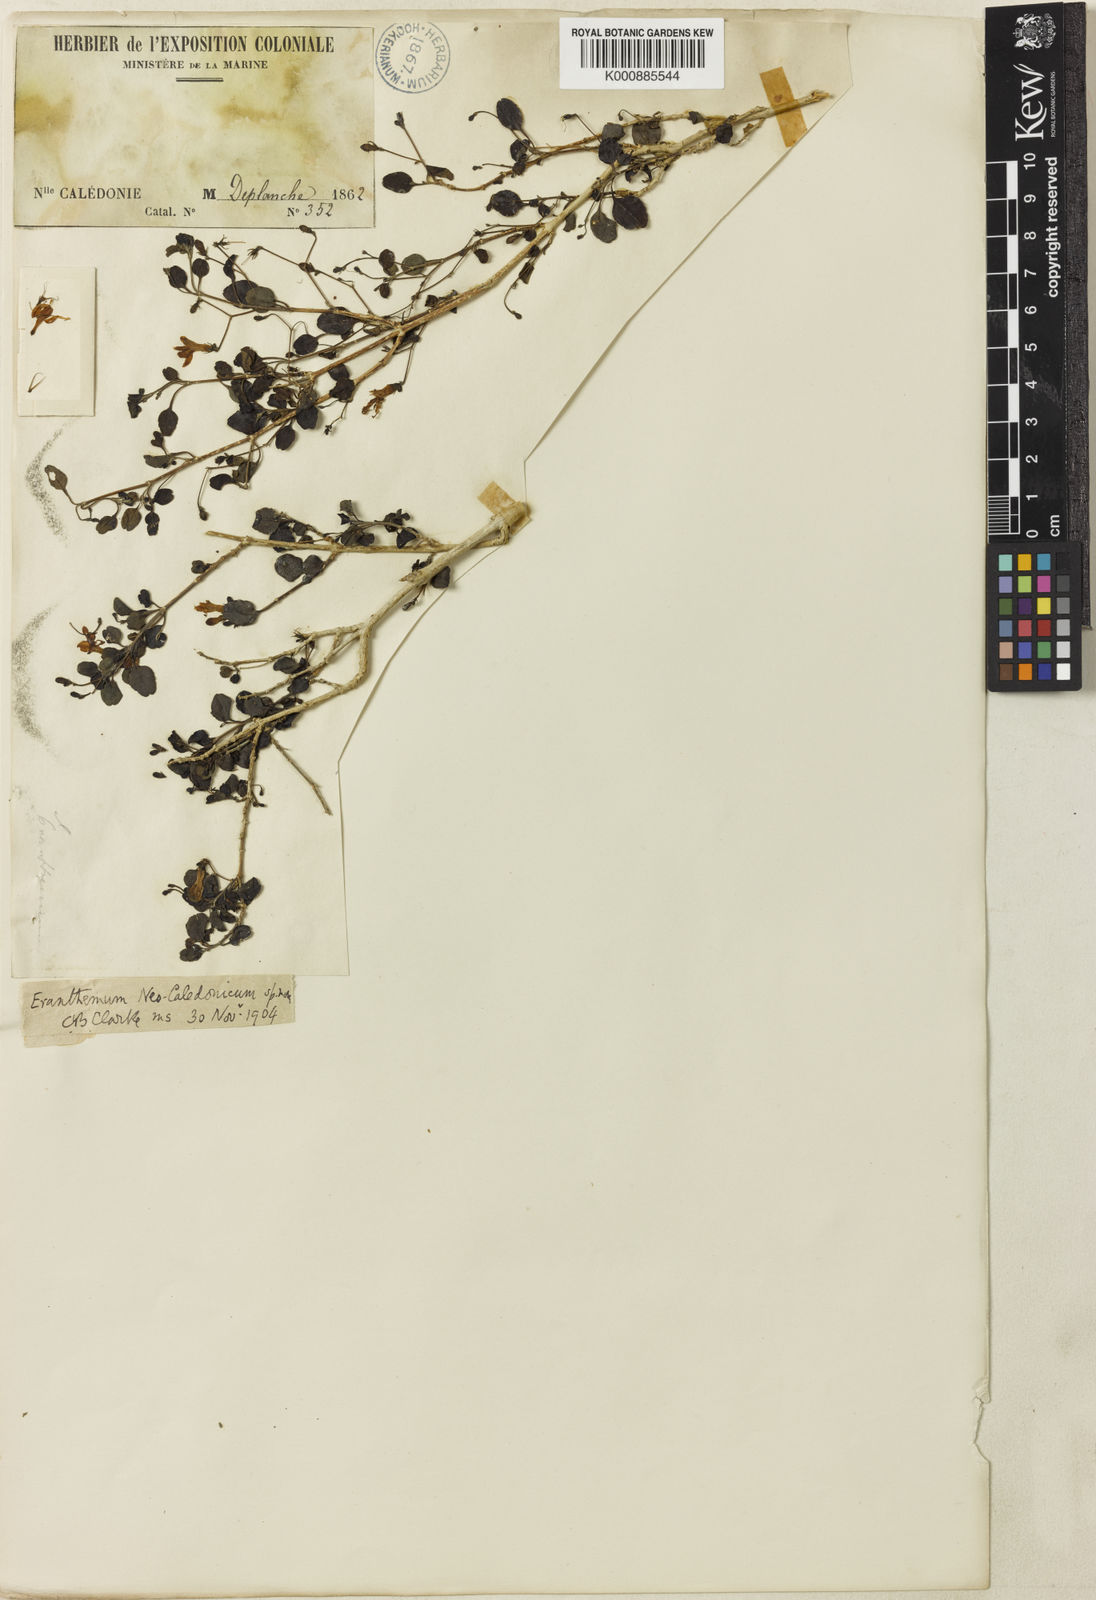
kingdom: Plantae
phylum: Tracheophyta
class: Magnoliopsida
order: Lamiales
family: Acanthaceae
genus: Pseuderanthemum
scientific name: Pseuderanthemum incisum
